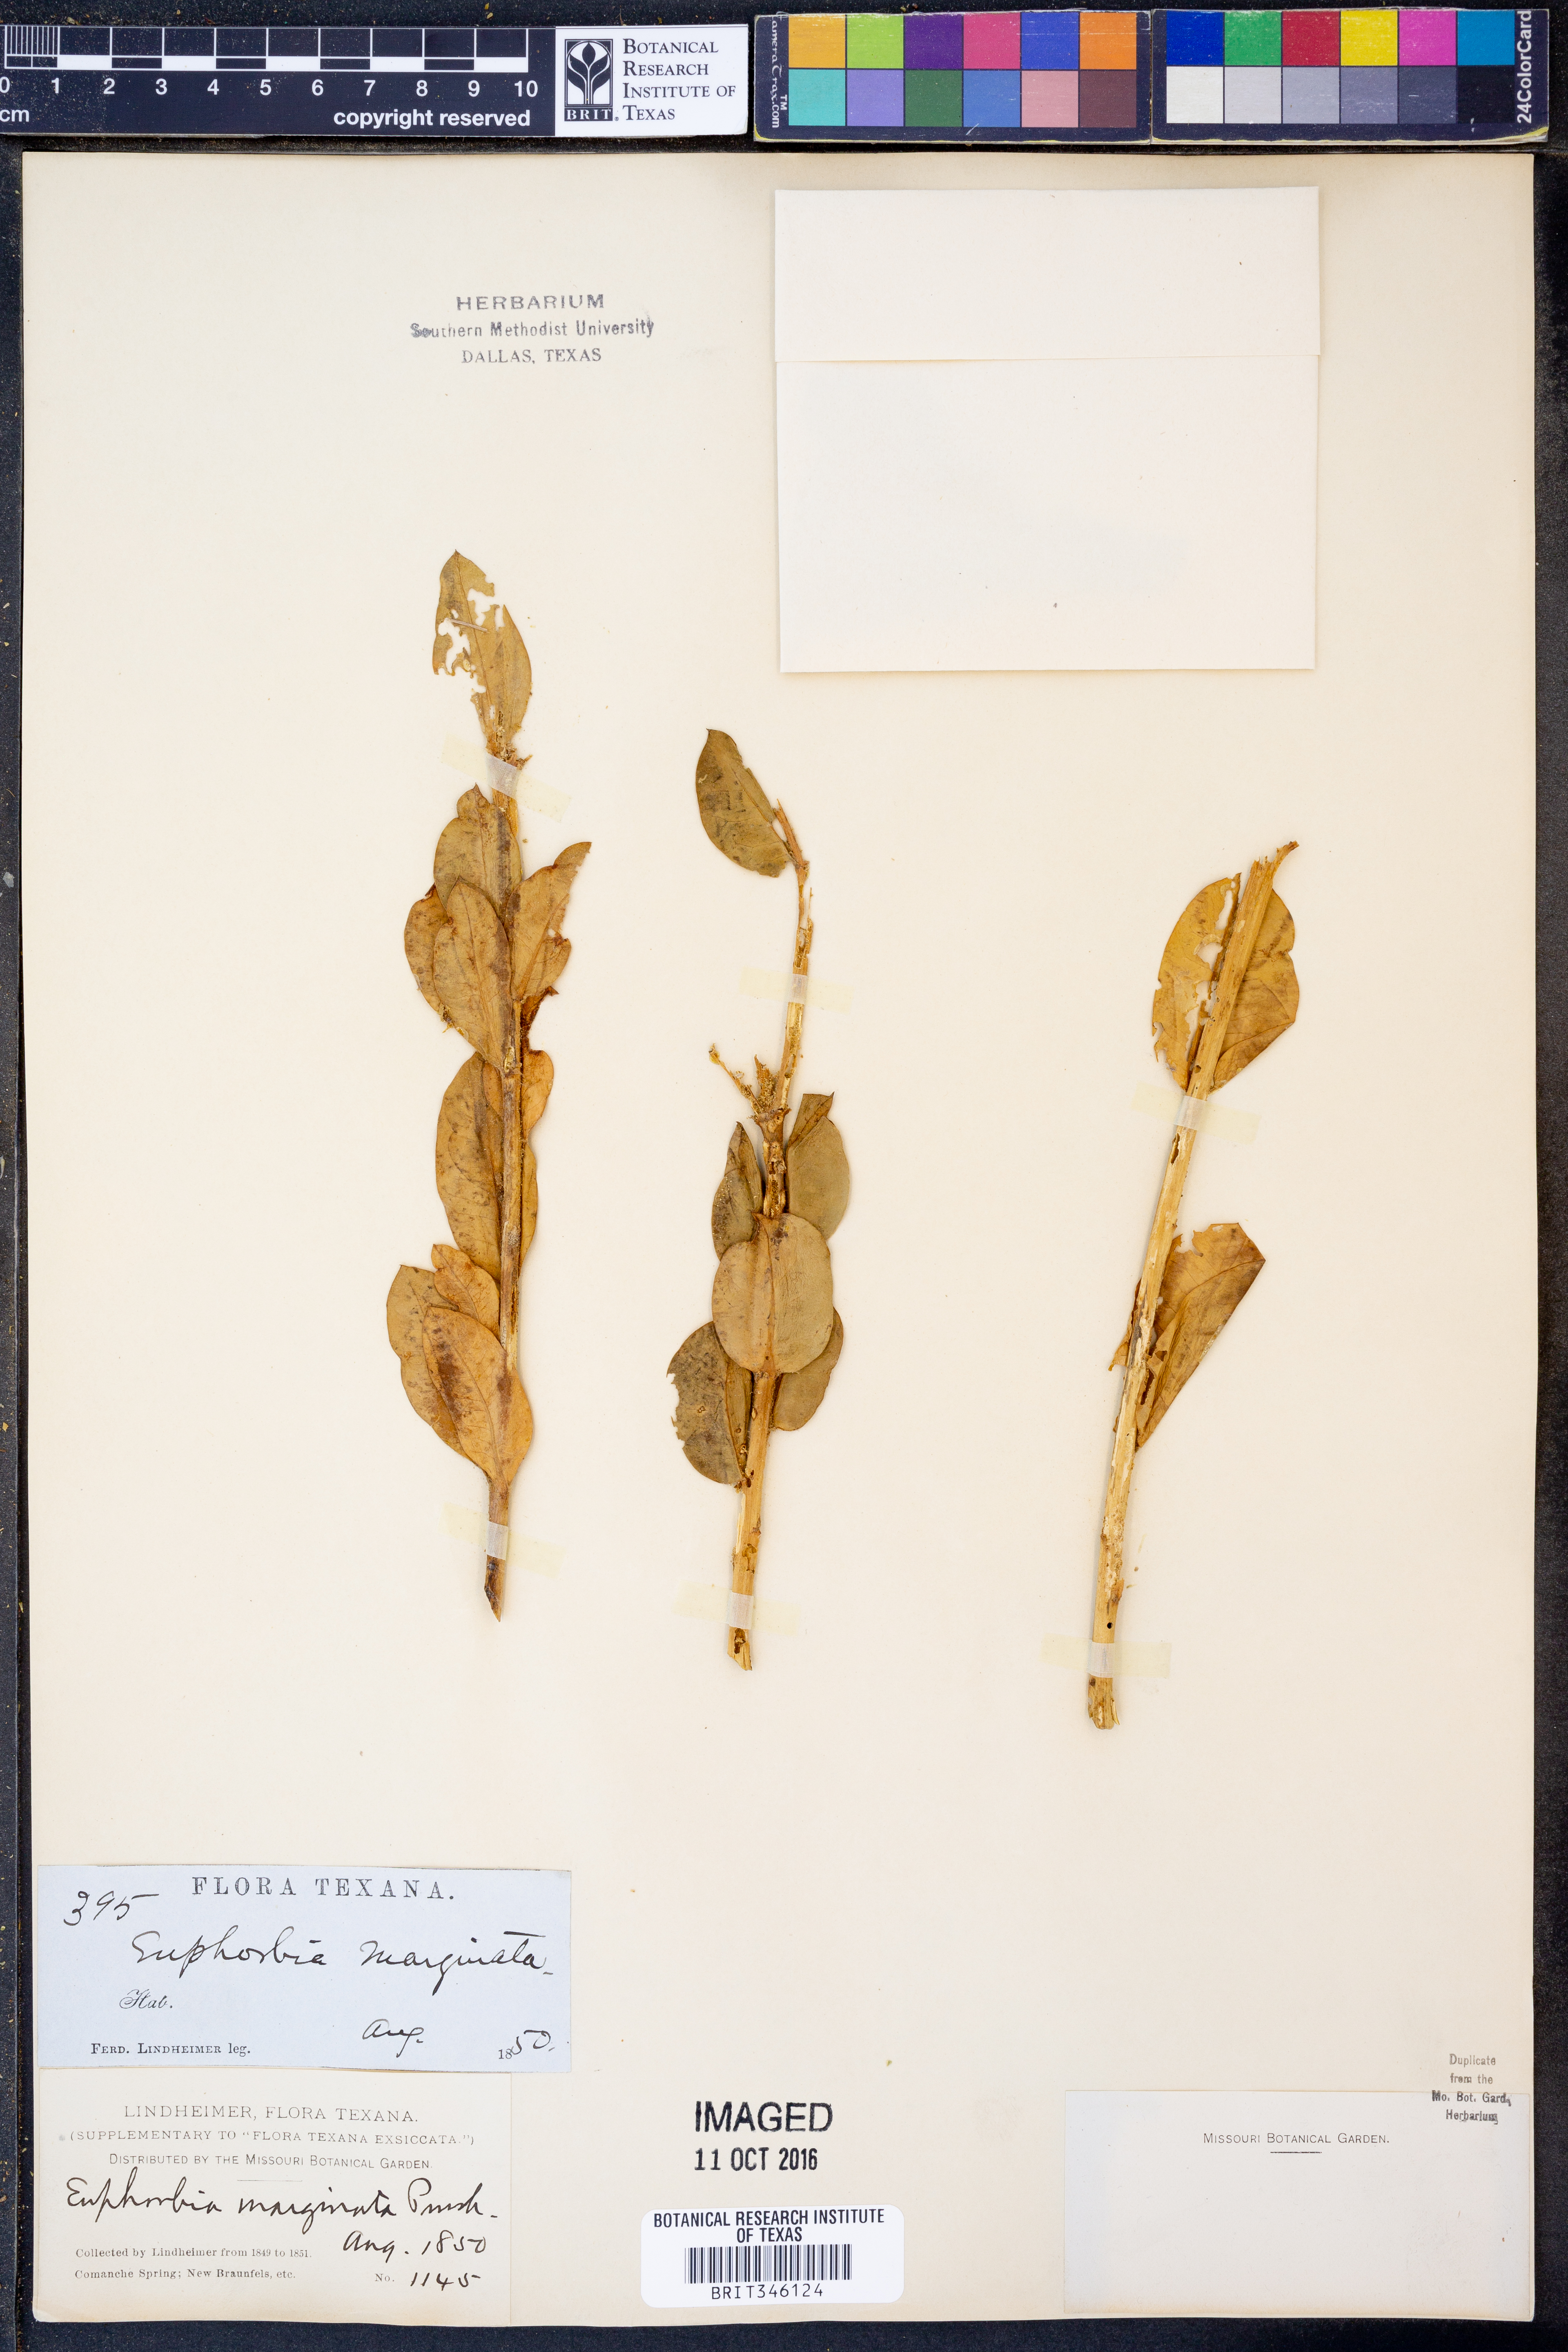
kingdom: Plantae
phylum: Tracheophyta
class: Magnoliopsida
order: Malpighiales
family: Euphorbiaceae
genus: Euphorbia
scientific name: Euphorbia marginata
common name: Ghostweed
